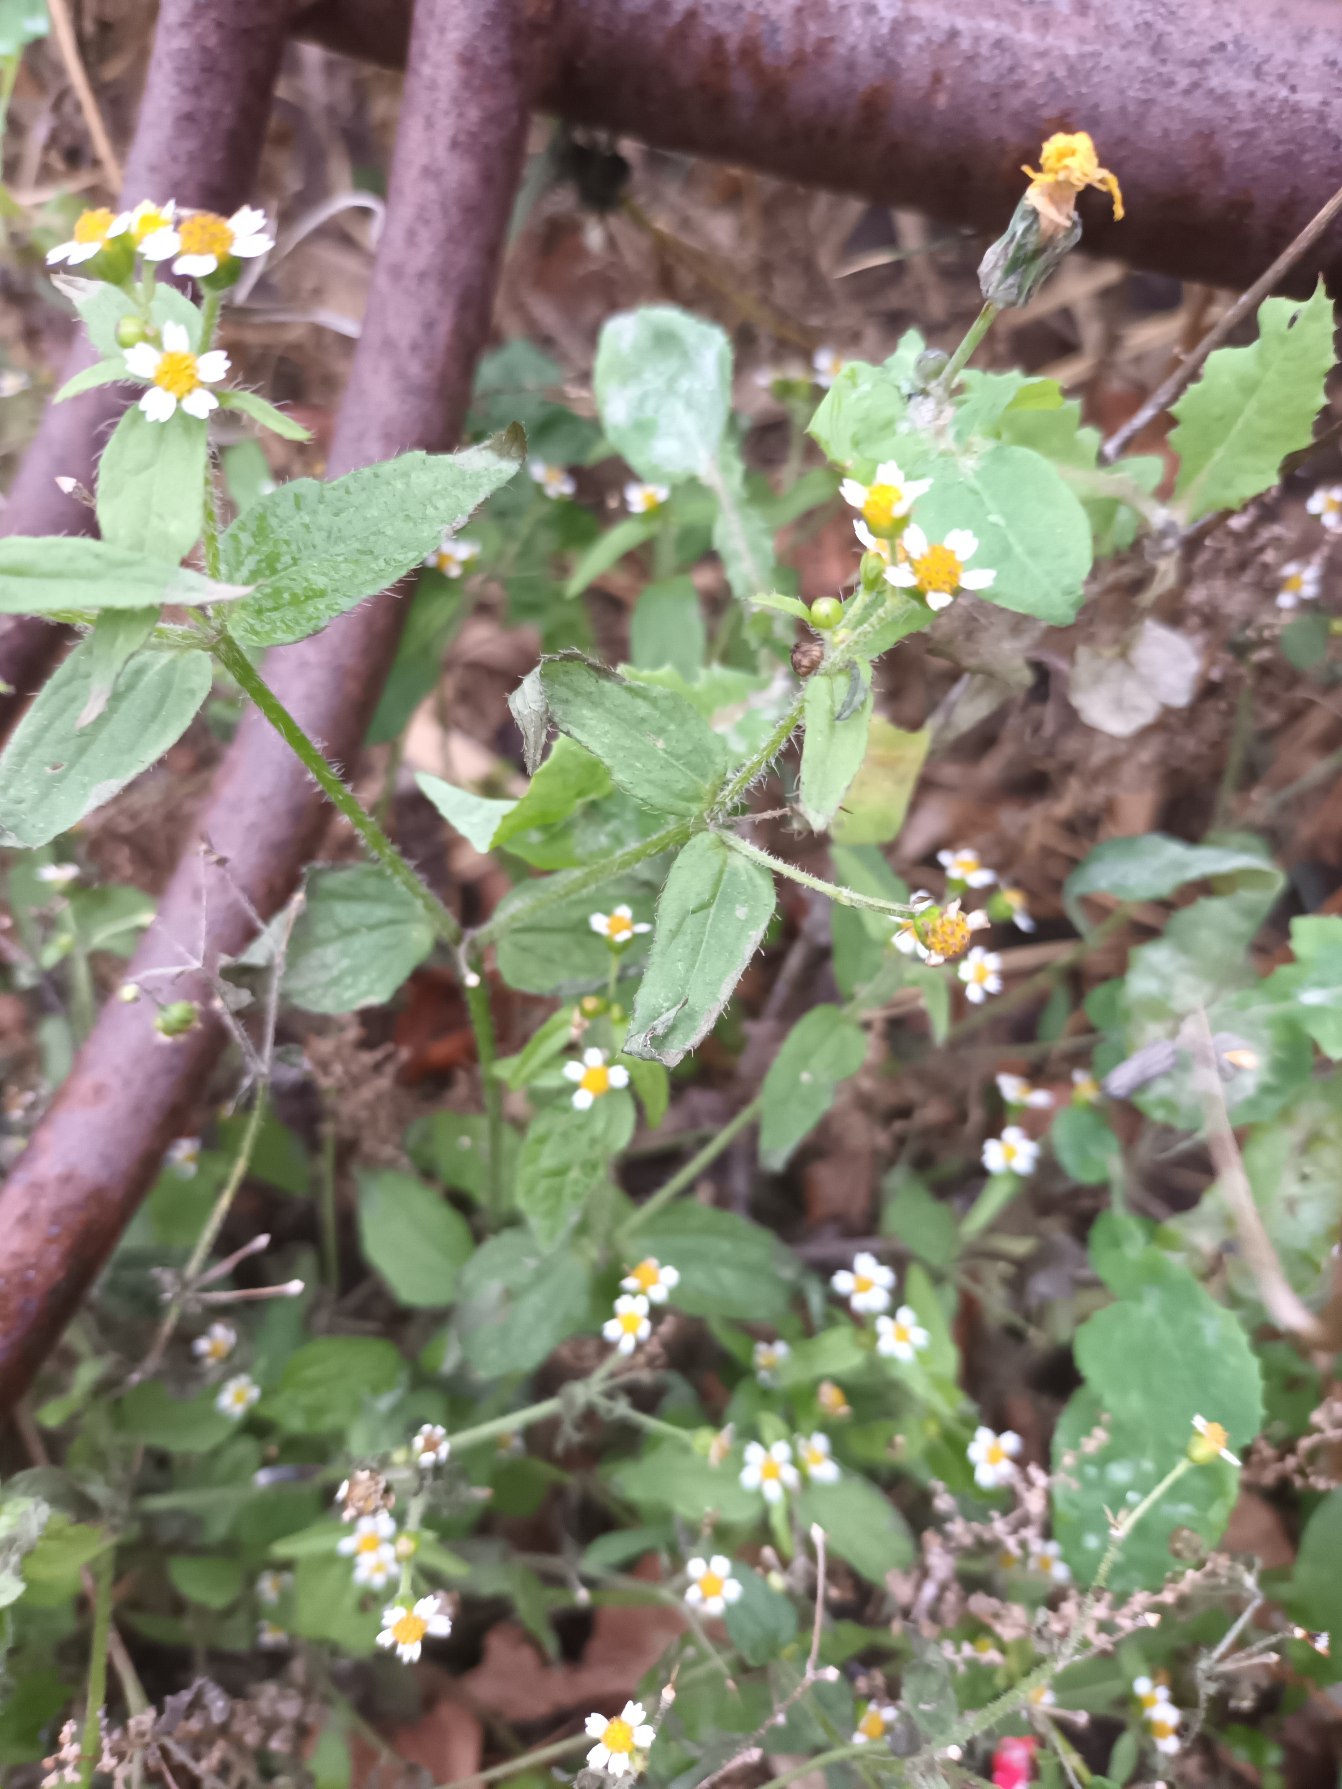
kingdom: Plantae
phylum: Tracheophyta
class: Magnoliopsida
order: Asterales
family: Asteraceae
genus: Galinsoga
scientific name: Galinsoga quadriradiata
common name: Kirtel-kortstråle
